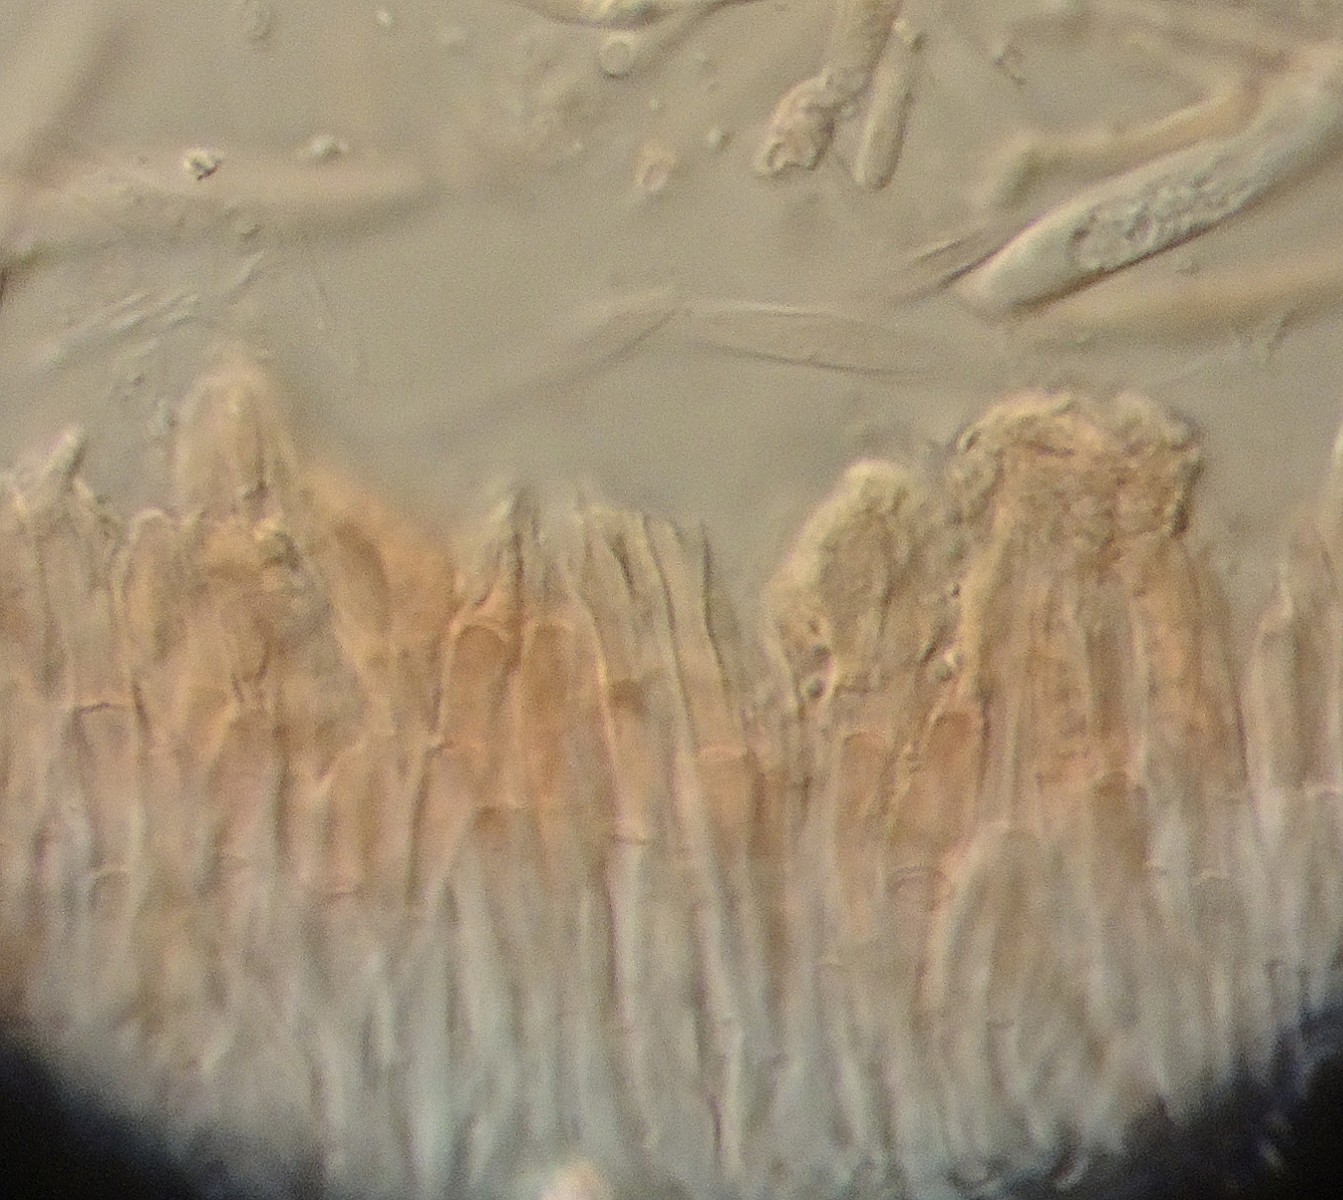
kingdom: Fungi
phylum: Ascomycota
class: Leotiomycetes
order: Helotiales
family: Pezizellaceae
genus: Psilachnum
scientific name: Psilachnum lanceolatoparaphysatum
